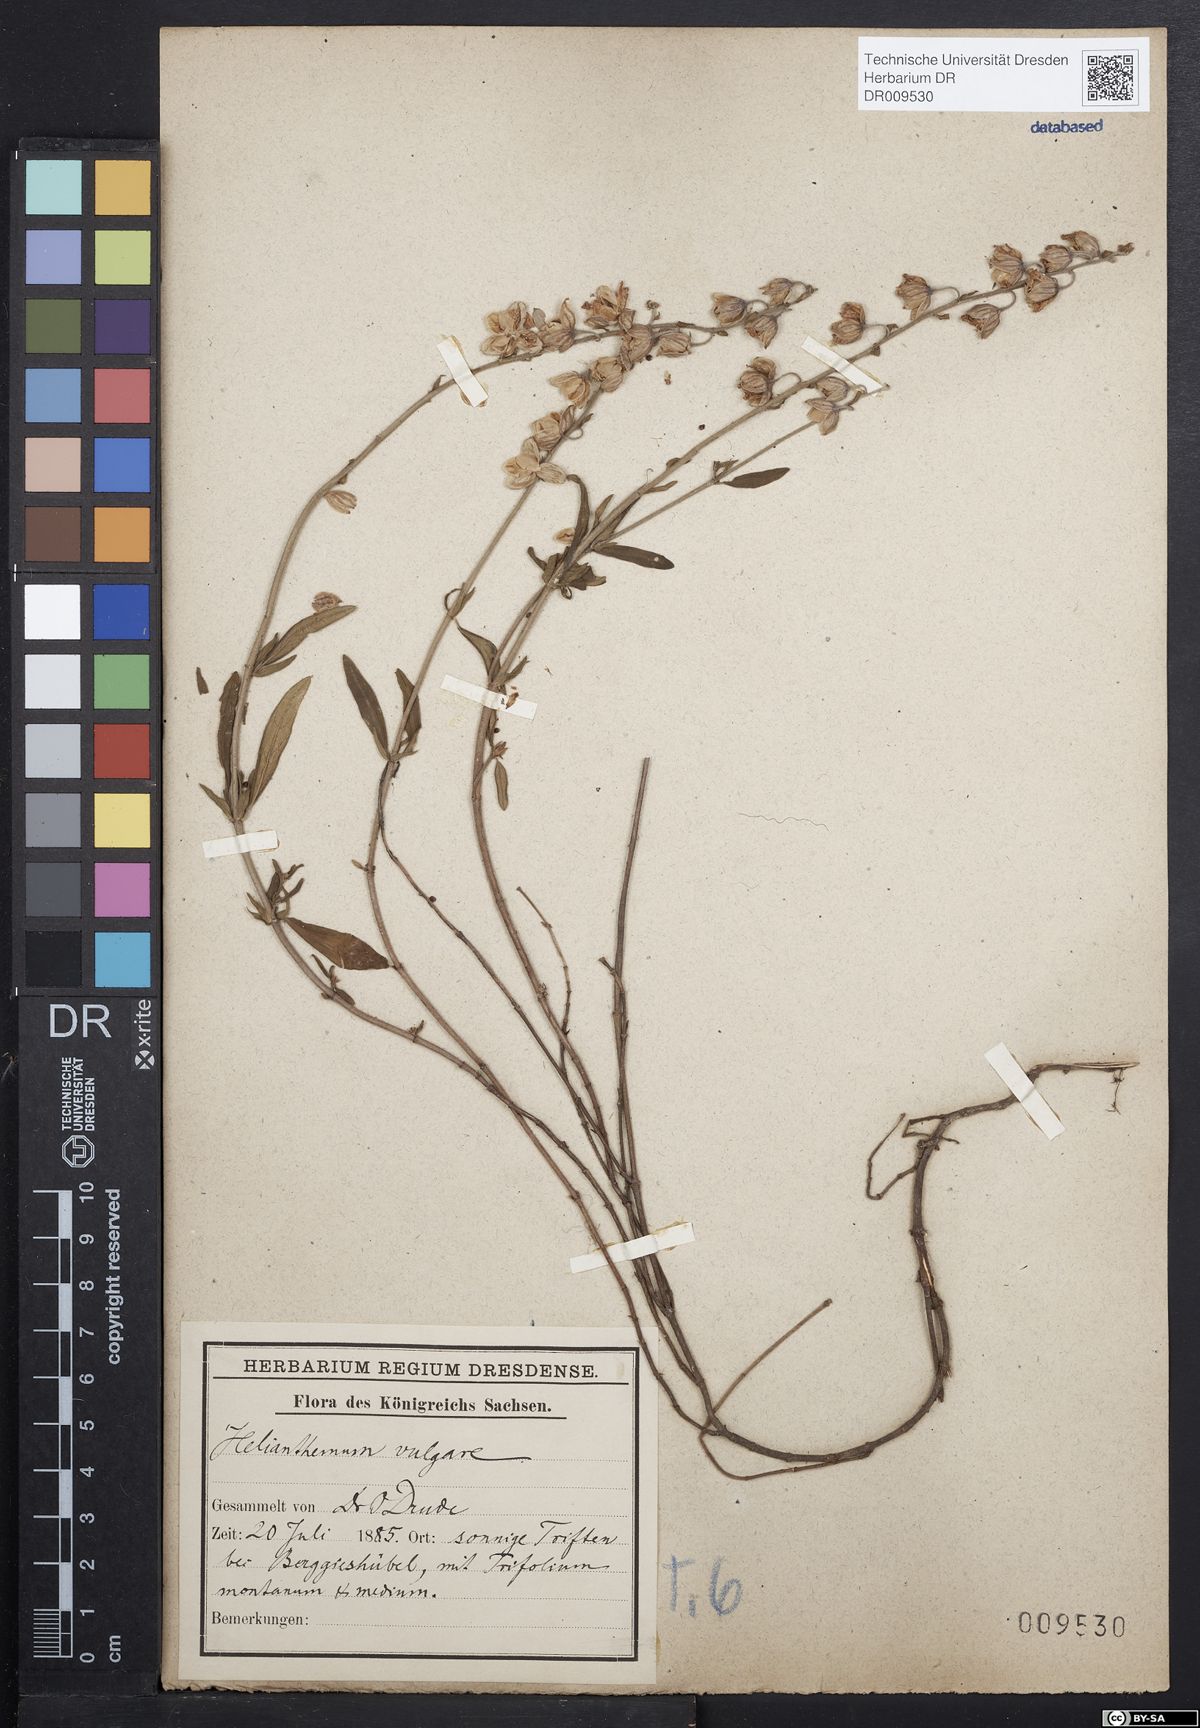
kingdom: Plantae
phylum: Tracheophyta
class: Magnoliopsida
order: Malvales
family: Cistaceae
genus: Helianthemum
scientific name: Helianthemum nummularium
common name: Common rock-rose
